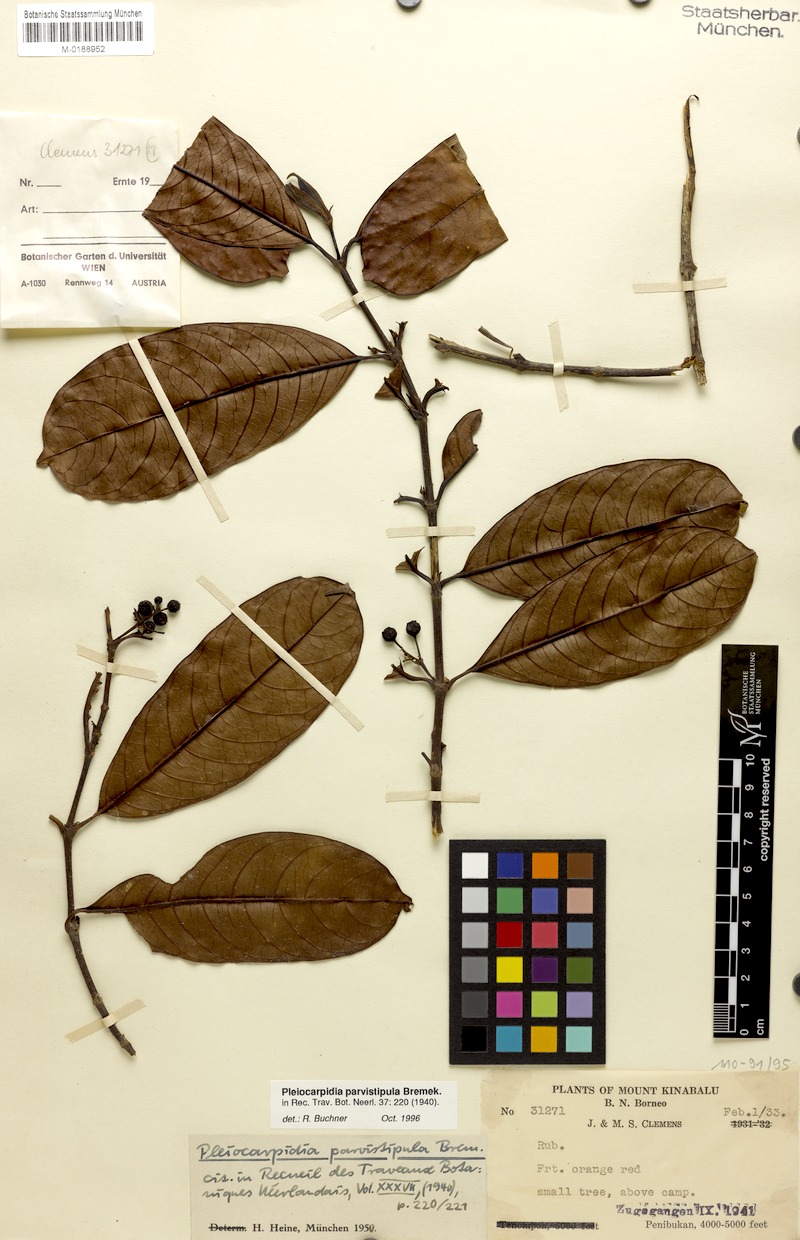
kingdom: Plantae
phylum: Tracheophyta
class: Magnoliopsida
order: Gentianales
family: Rubiaceae
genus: Urophyllum
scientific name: Urophyllum parvistipulum
